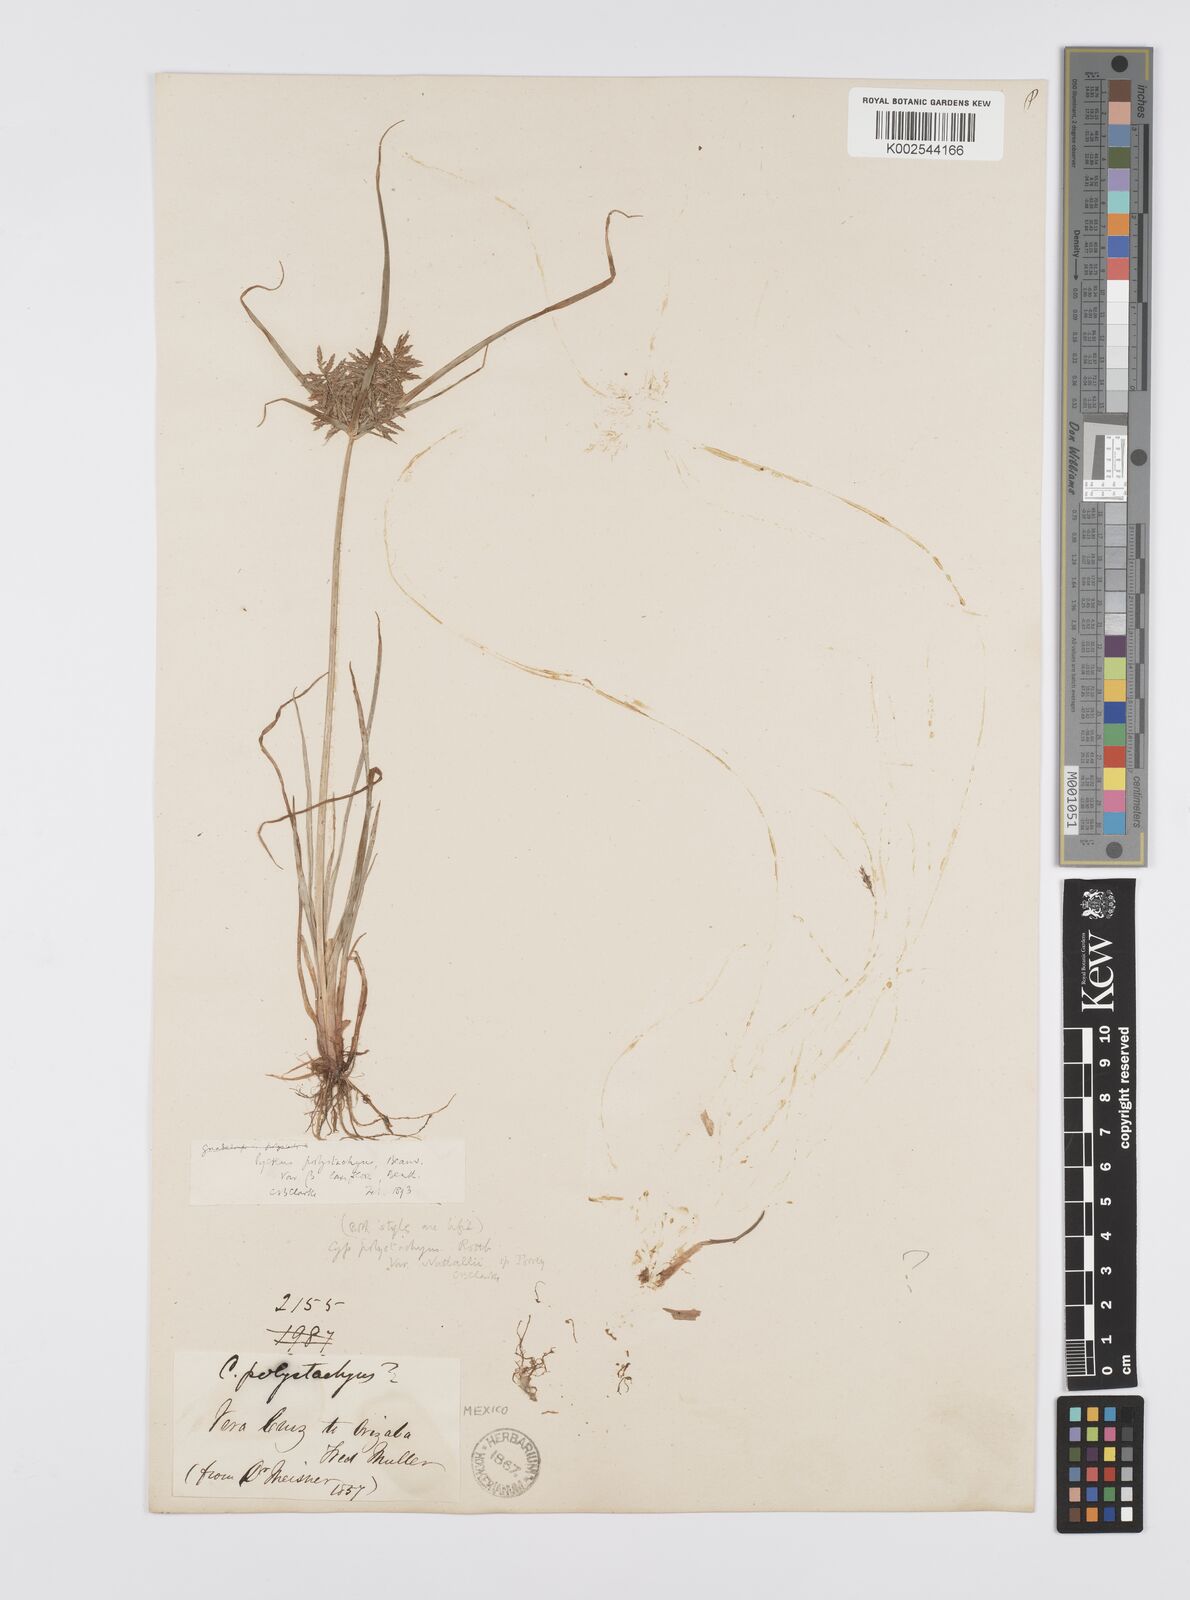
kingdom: Plantae
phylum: Tracheophyta
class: Liliopsida
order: Poales
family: Cyperaceae
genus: Cyperus
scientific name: Cyperus polystachyos
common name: Bunchy flat sedge
